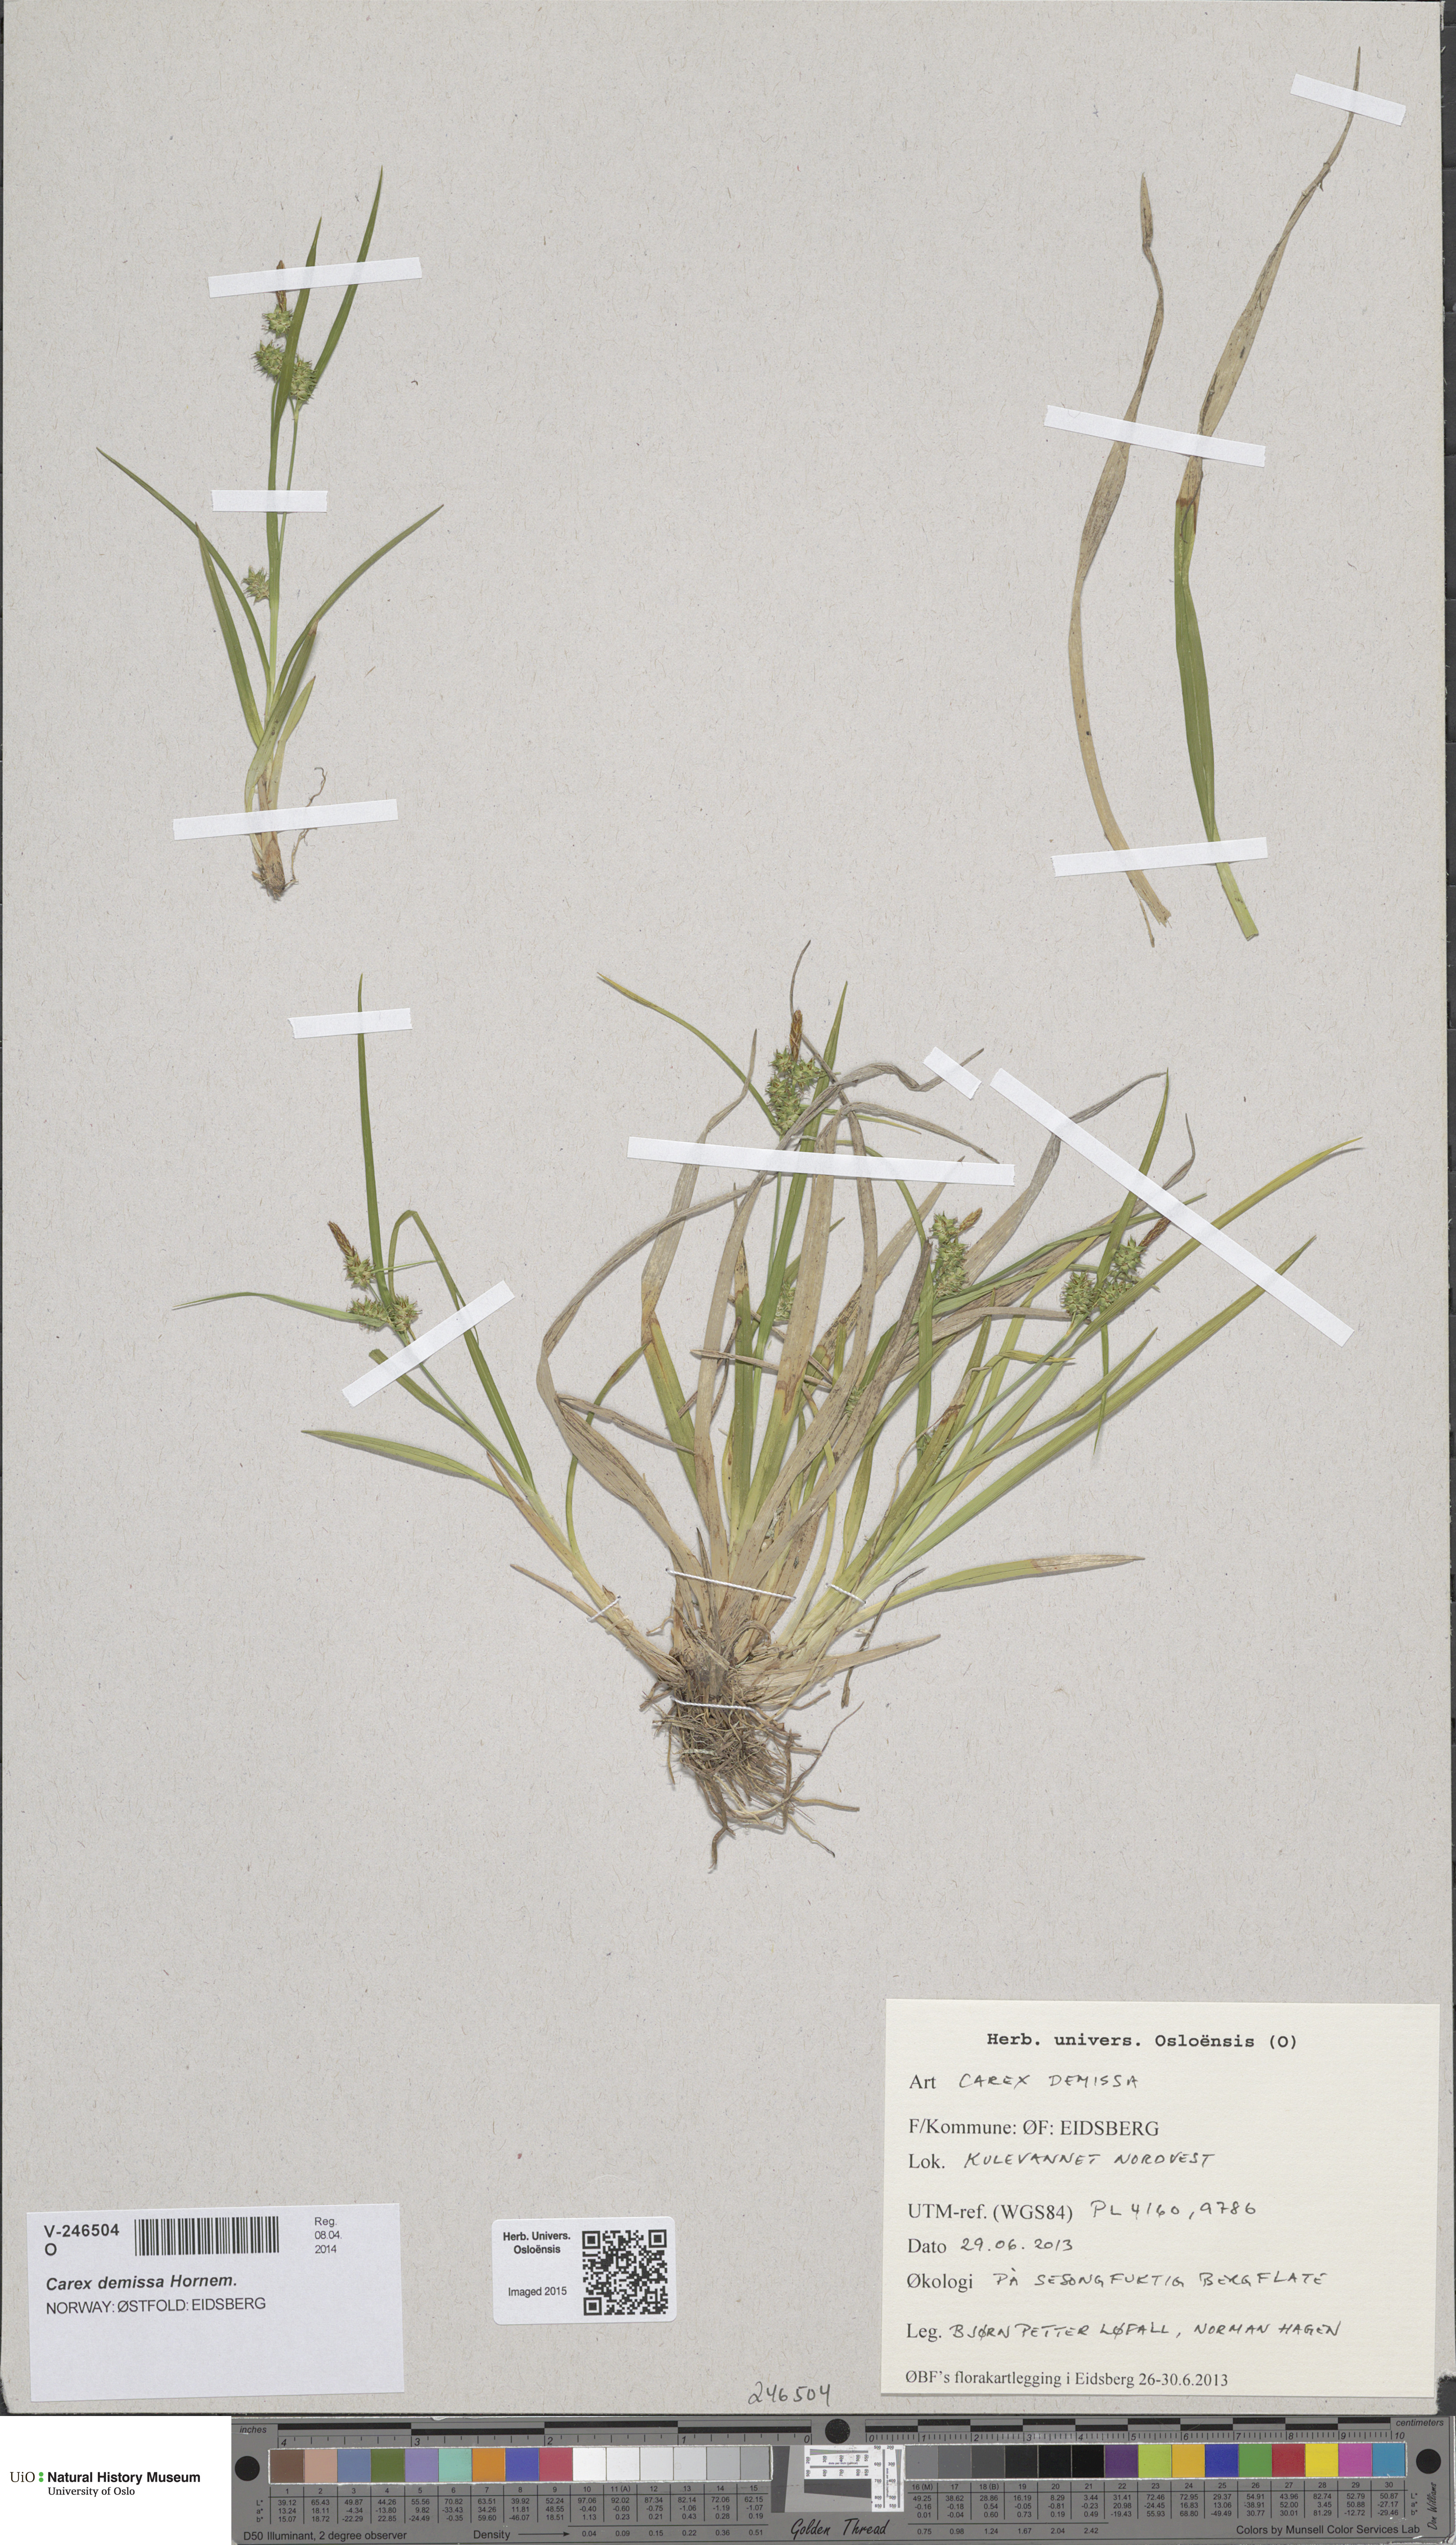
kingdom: Plantae
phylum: Tracheophyta
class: Liliopsida
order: Poales
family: Cyperaceae
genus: Carex
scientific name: Carex demissa
